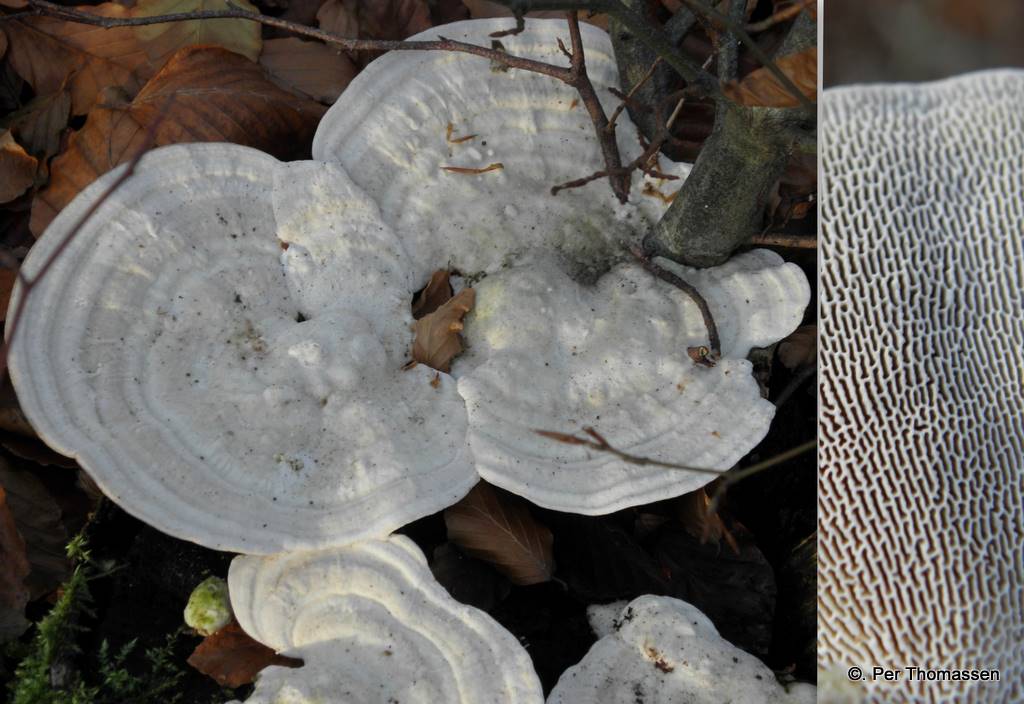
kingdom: Fungi
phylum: Basidiomycota
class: Agaricomycetes
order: Polyporales
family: Polyporaceae
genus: Trametes
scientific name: Trametes gibbosa
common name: puklet læderporesvamp
